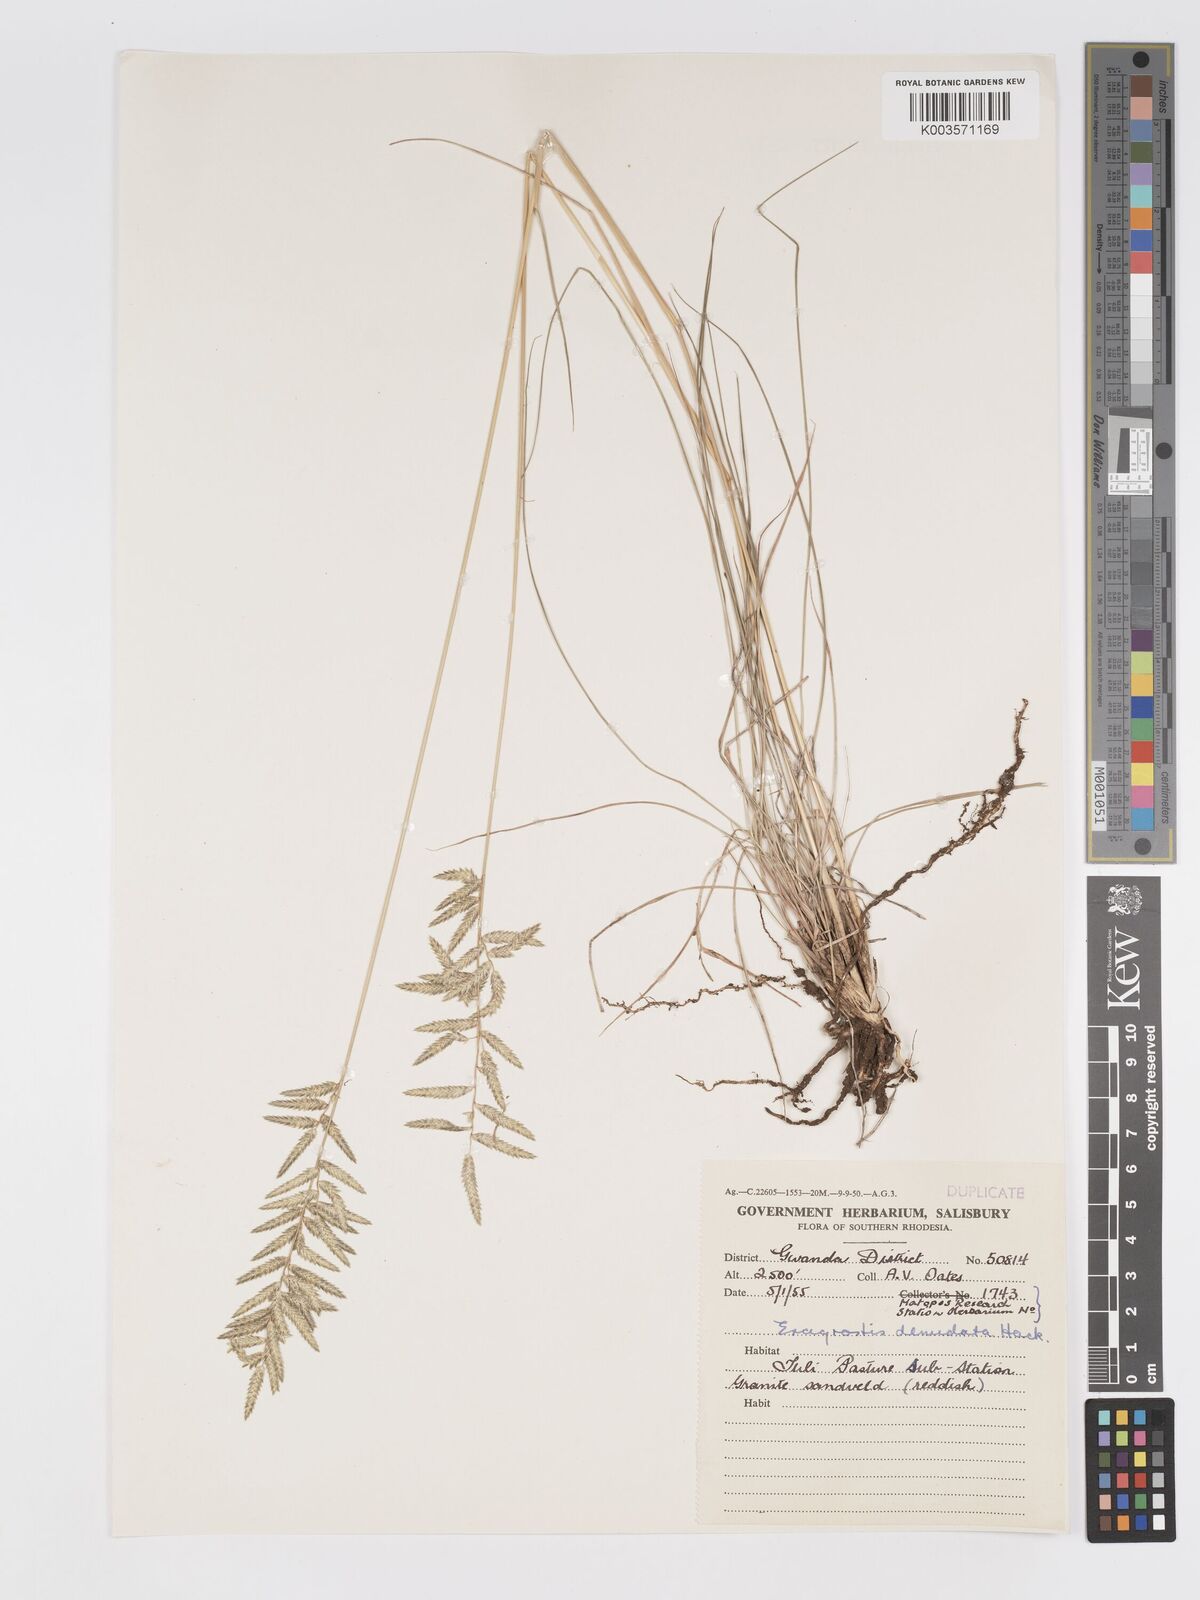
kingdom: Plantae
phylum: Tracheophyta
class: Liliopsida
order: Poales
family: Poaceae
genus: Eragrostis
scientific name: Eragrostis nindensis
